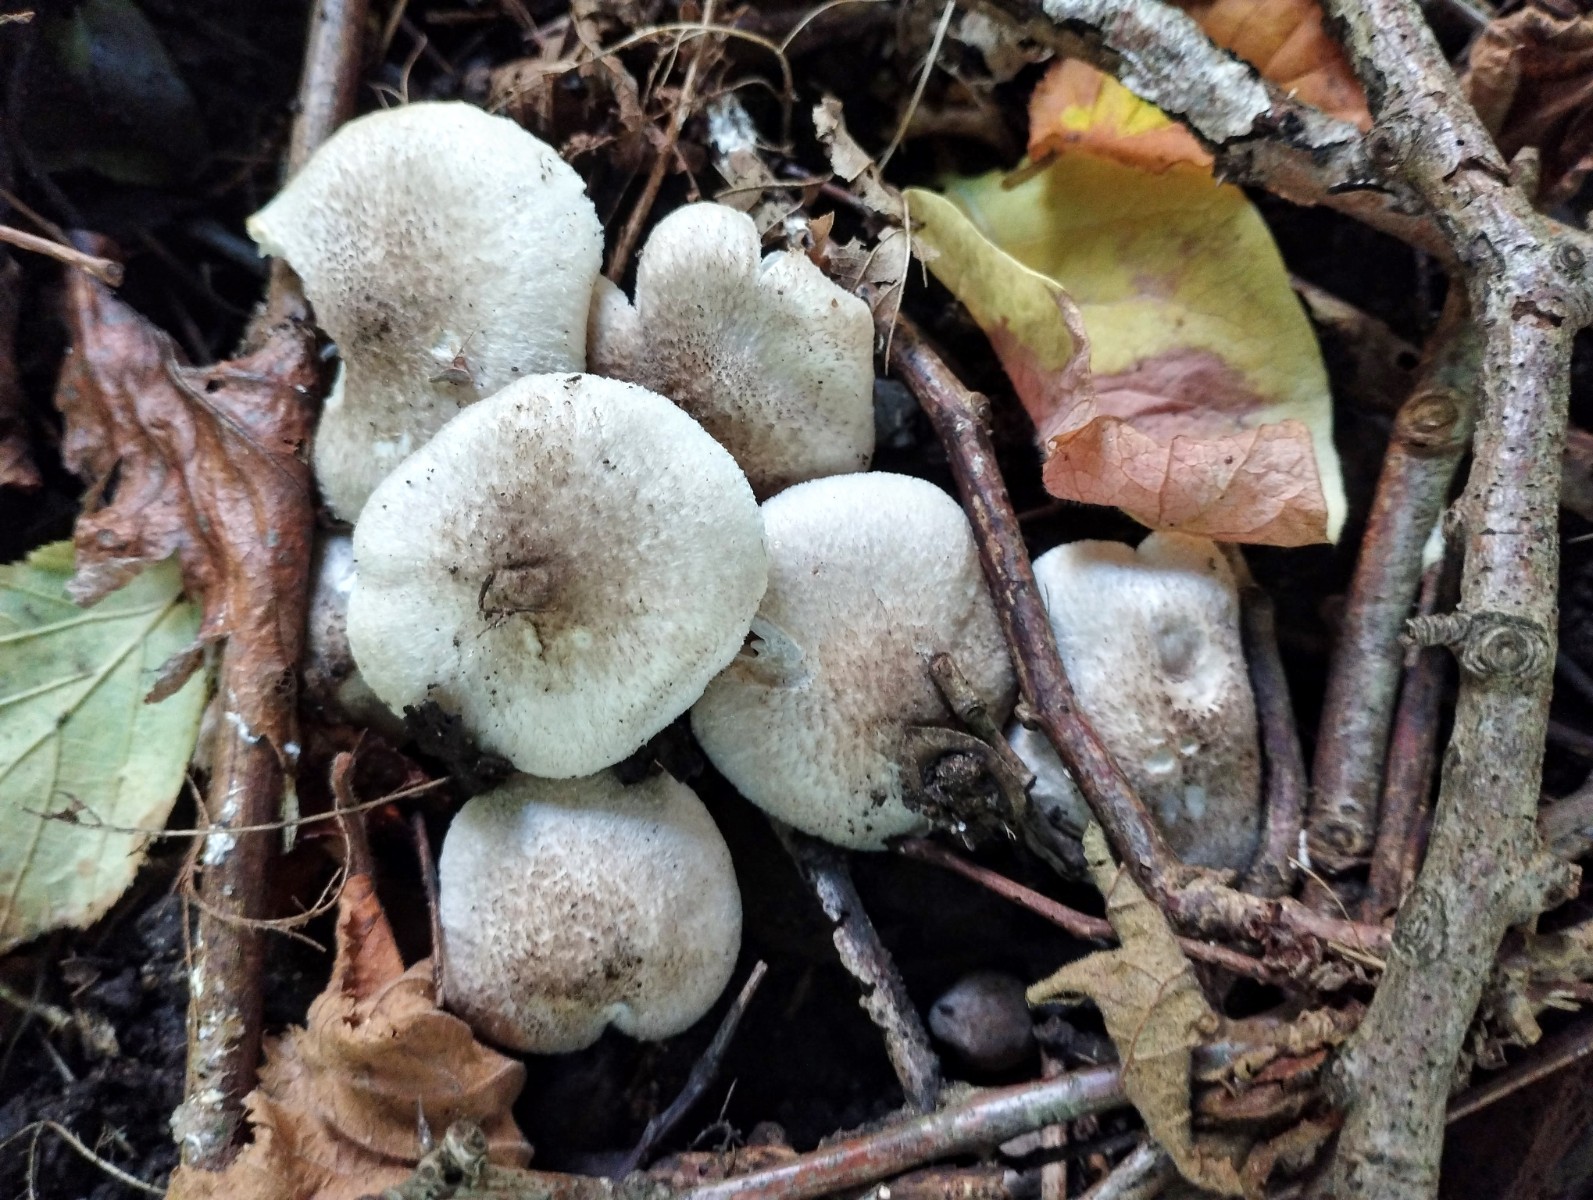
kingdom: Fungi
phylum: Basidiomycota
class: Agaricomycetes
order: Agaricales
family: Tricholomataceae
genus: Tricholoma
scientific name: Tricholoma scalpturatum
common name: gulplettet ridderhat
